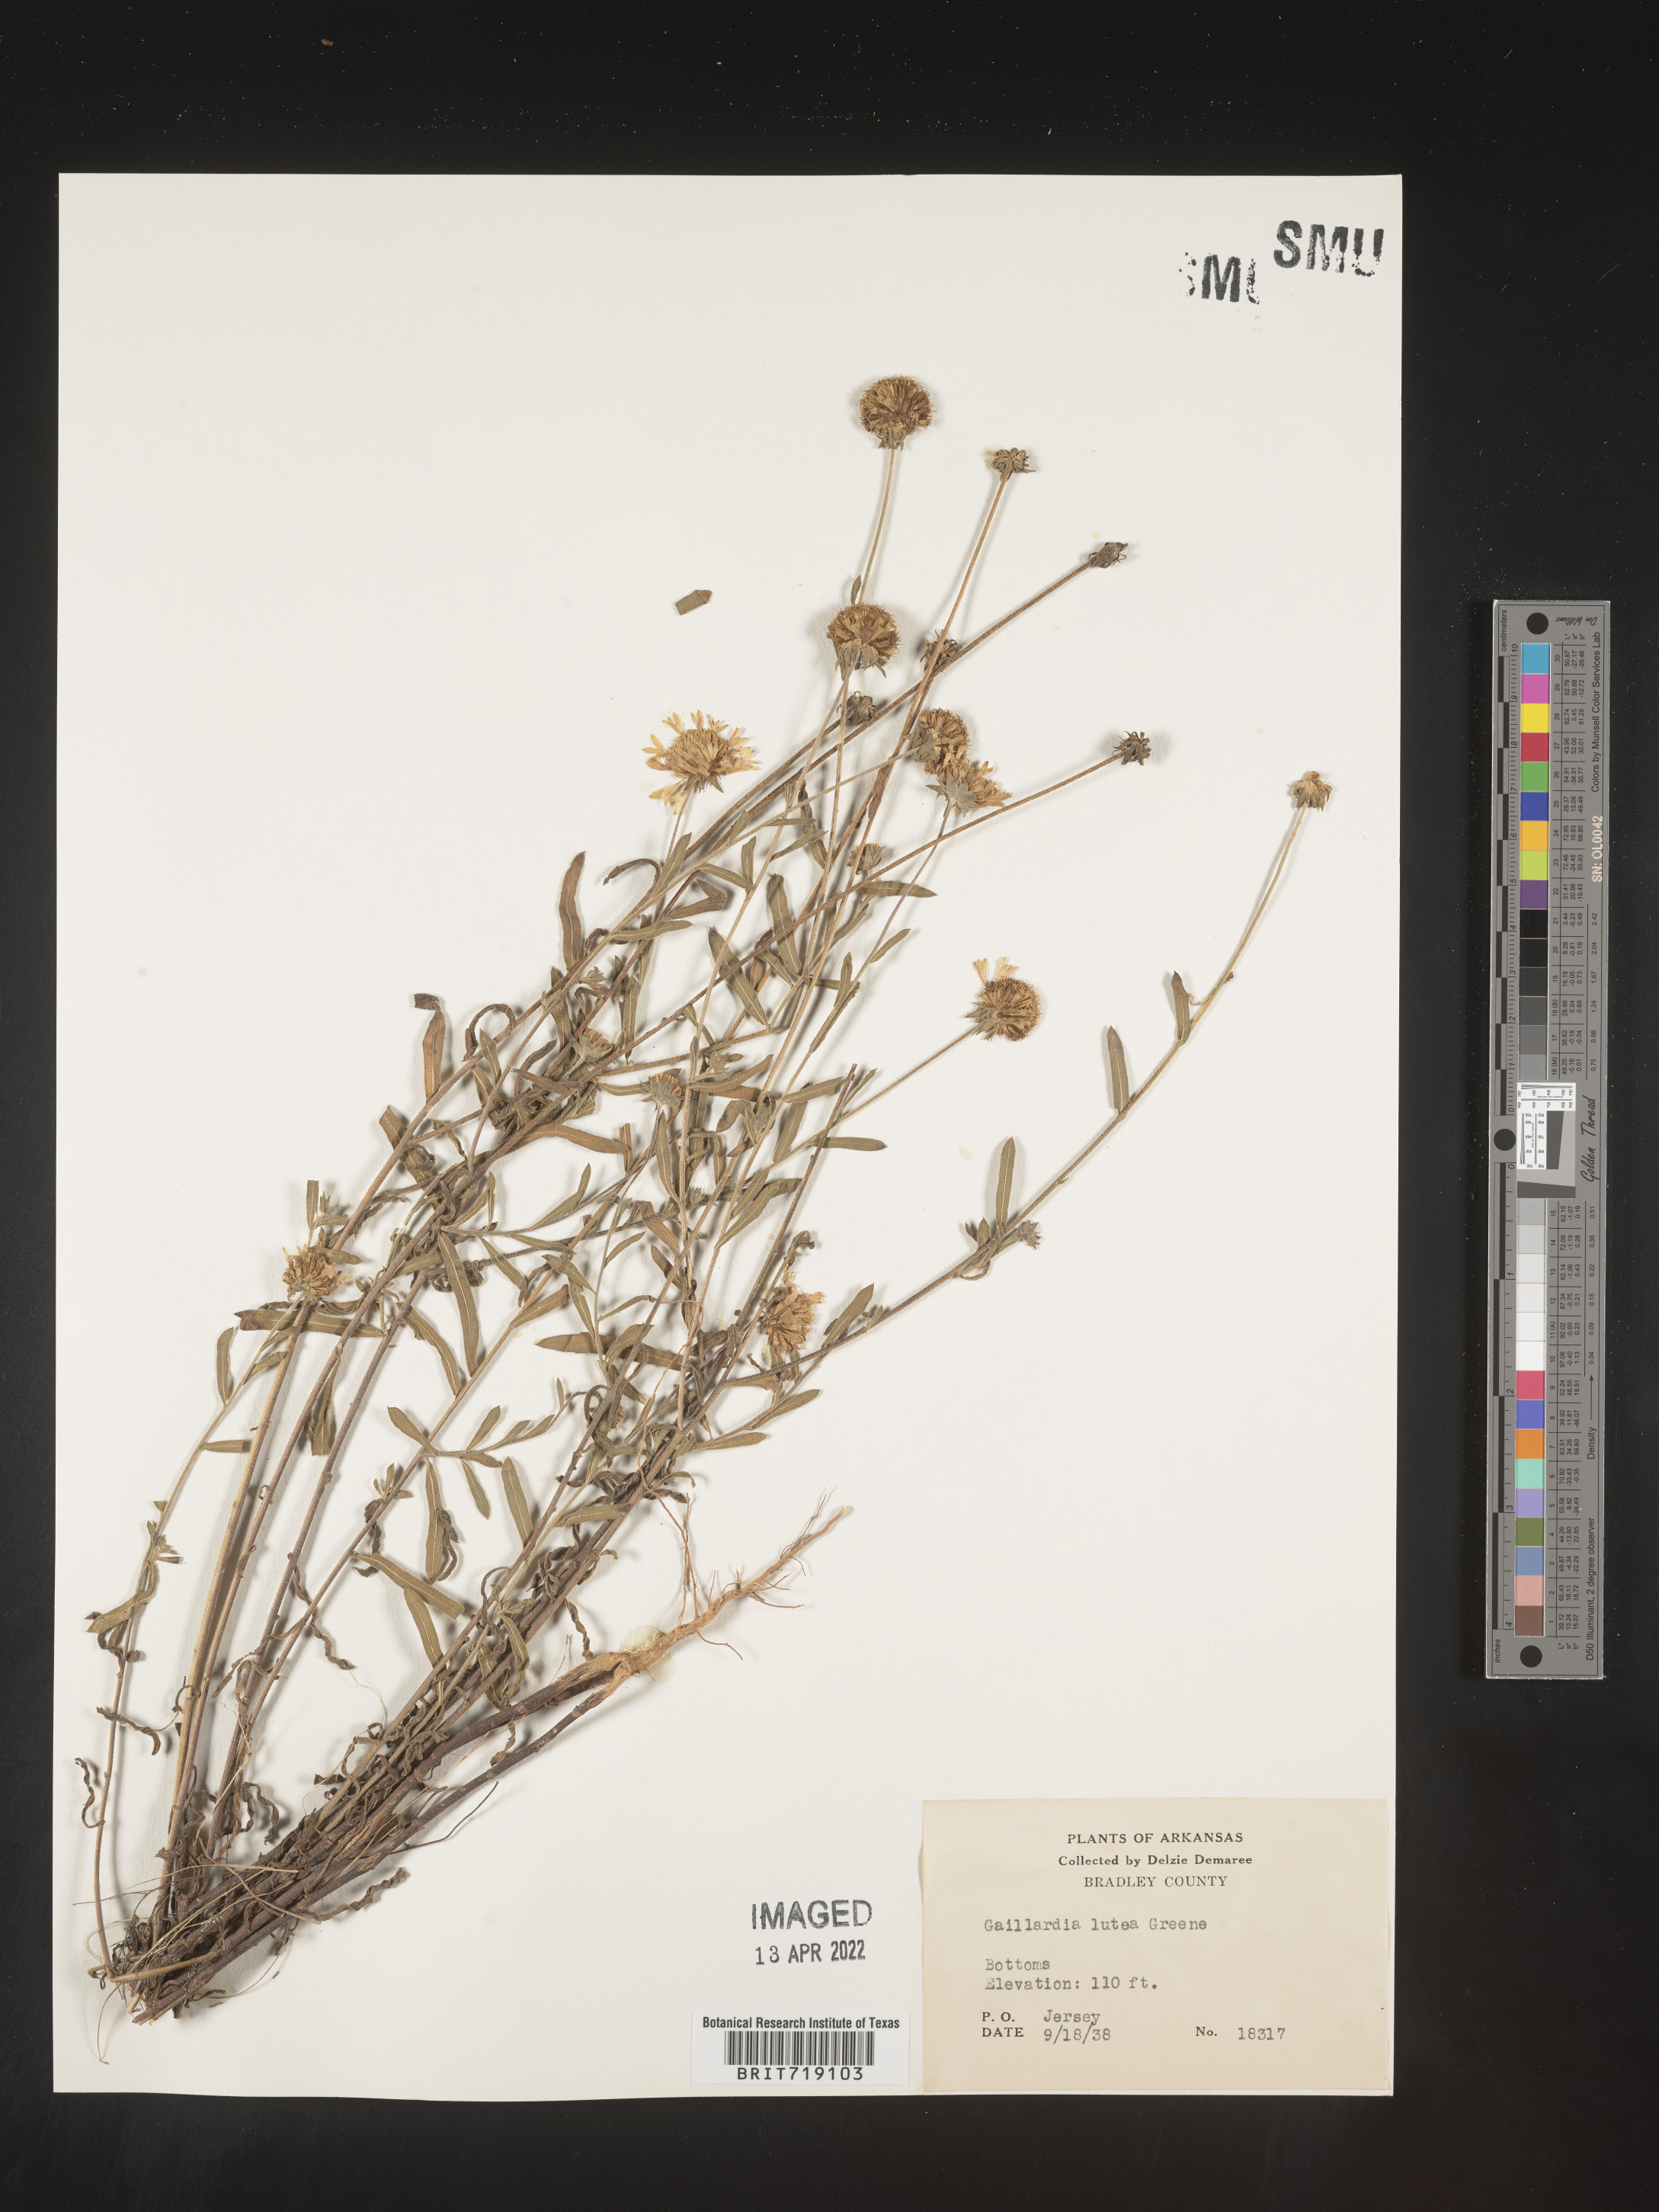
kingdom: Plantae
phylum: Tracheophyta
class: Magnoliopsida
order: Asterales
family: Asteraceae
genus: Gaillardia
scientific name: Gaillardia aestivalis
